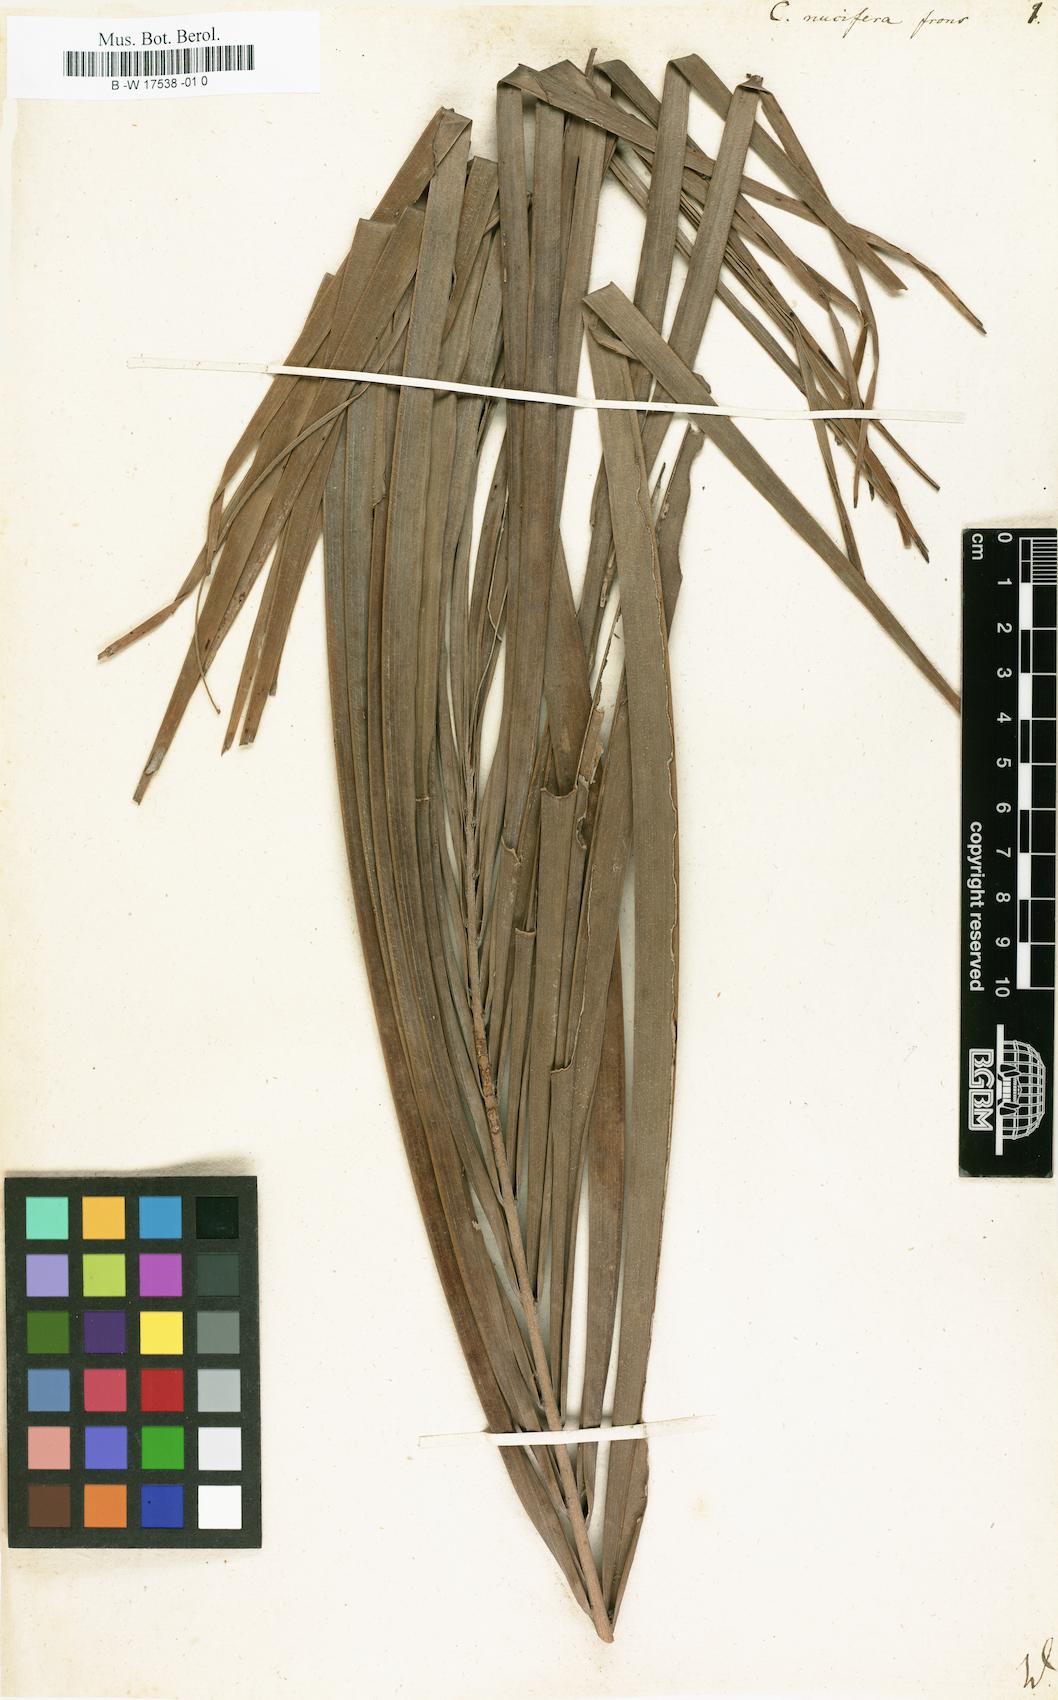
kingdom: Plantae
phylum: Tracheophyta
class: Liliopsida
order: Arecales
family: Arecaceae
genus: Cocos
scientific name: Cocos nucifera
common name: Coconut palm
